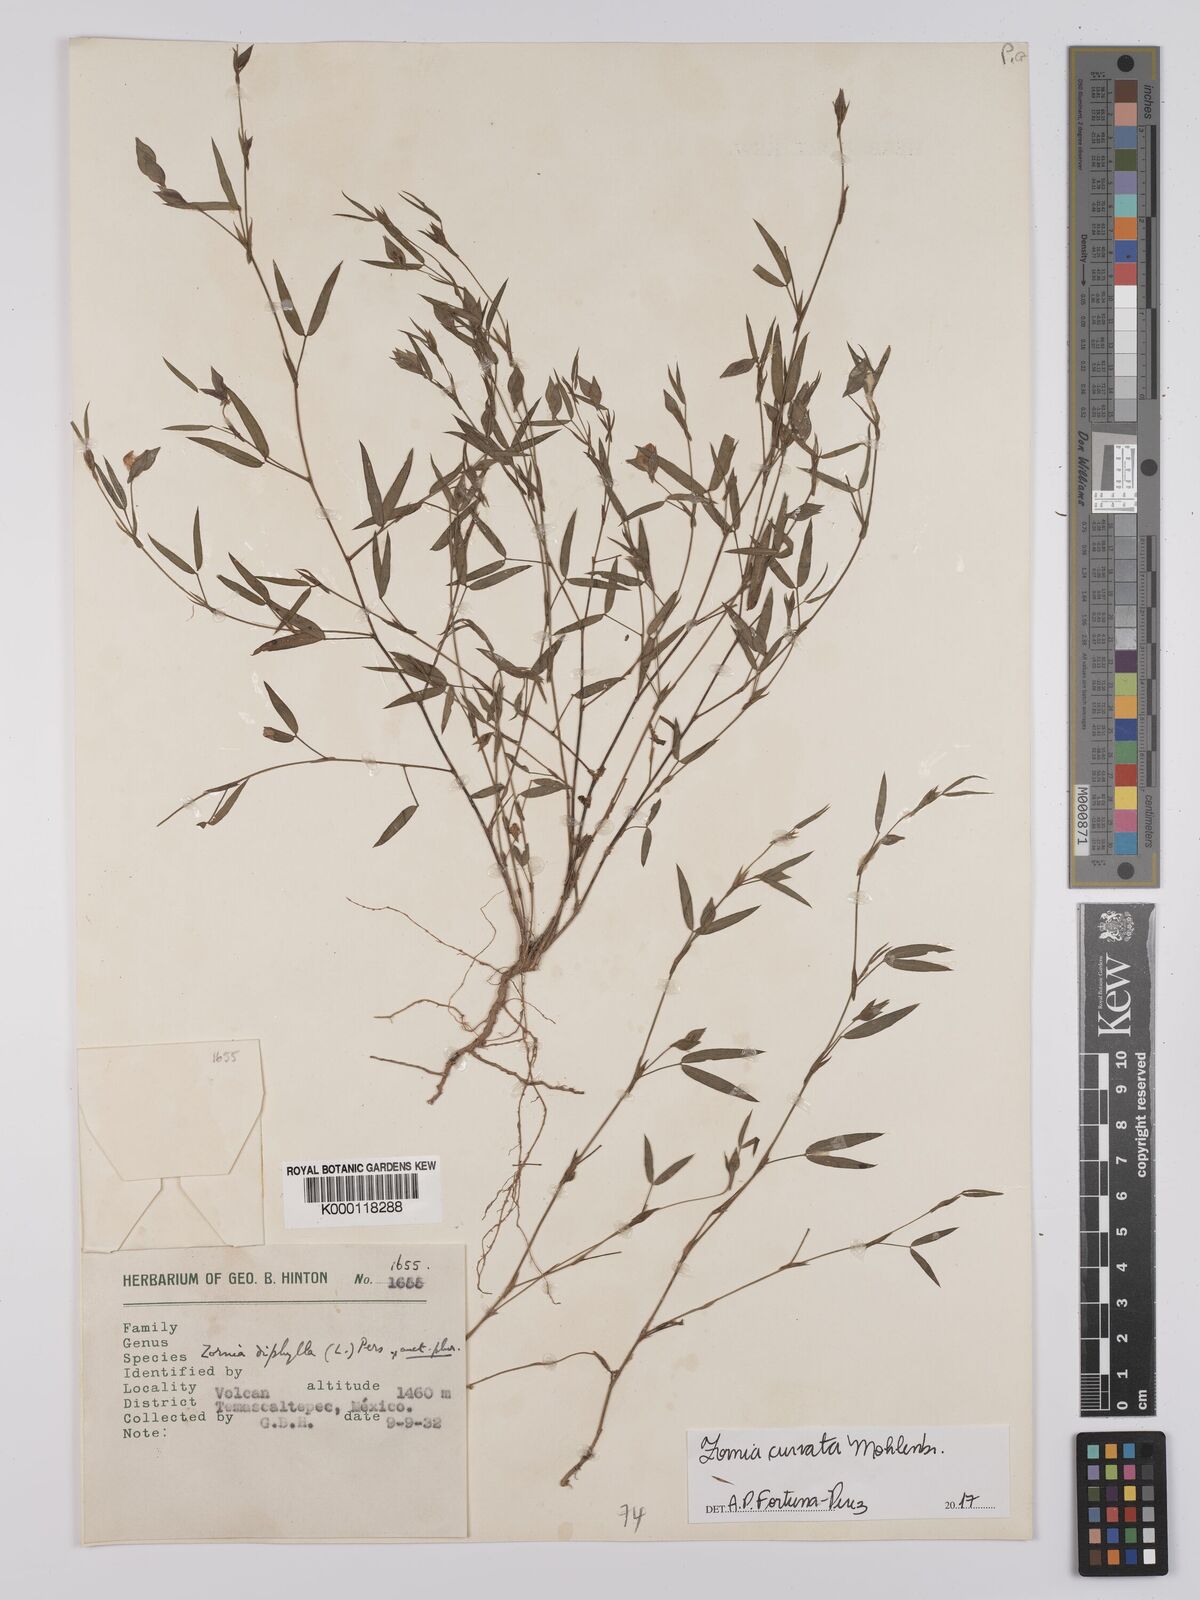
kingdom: Plantae
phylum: Tracheophyta
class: Magnoliopsida
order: Fabales
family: Fabaceae
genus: Zornia
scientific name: Zornia curvata
